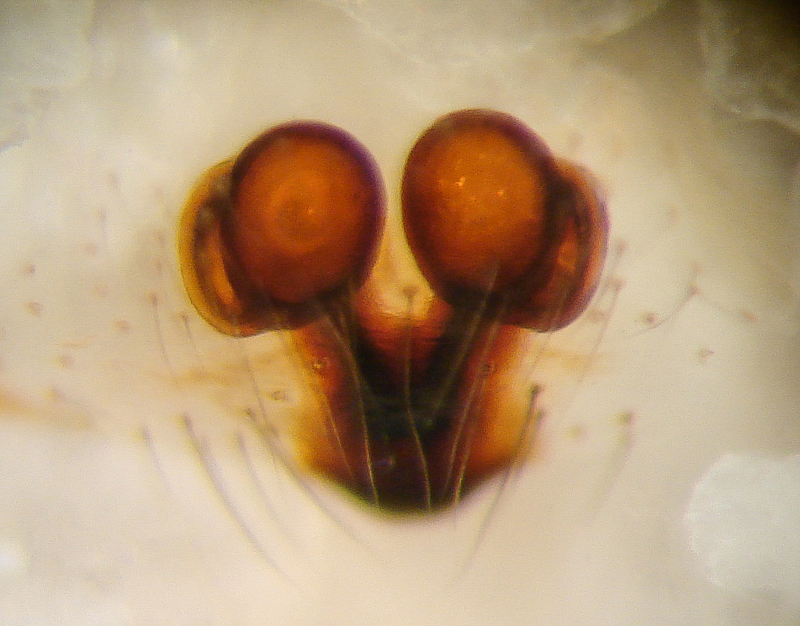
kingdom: Animalia
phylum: Arthropoda
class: Arachnida
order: Araneae
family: Theridiidae
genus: Robertus
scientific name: Robertus lividus
